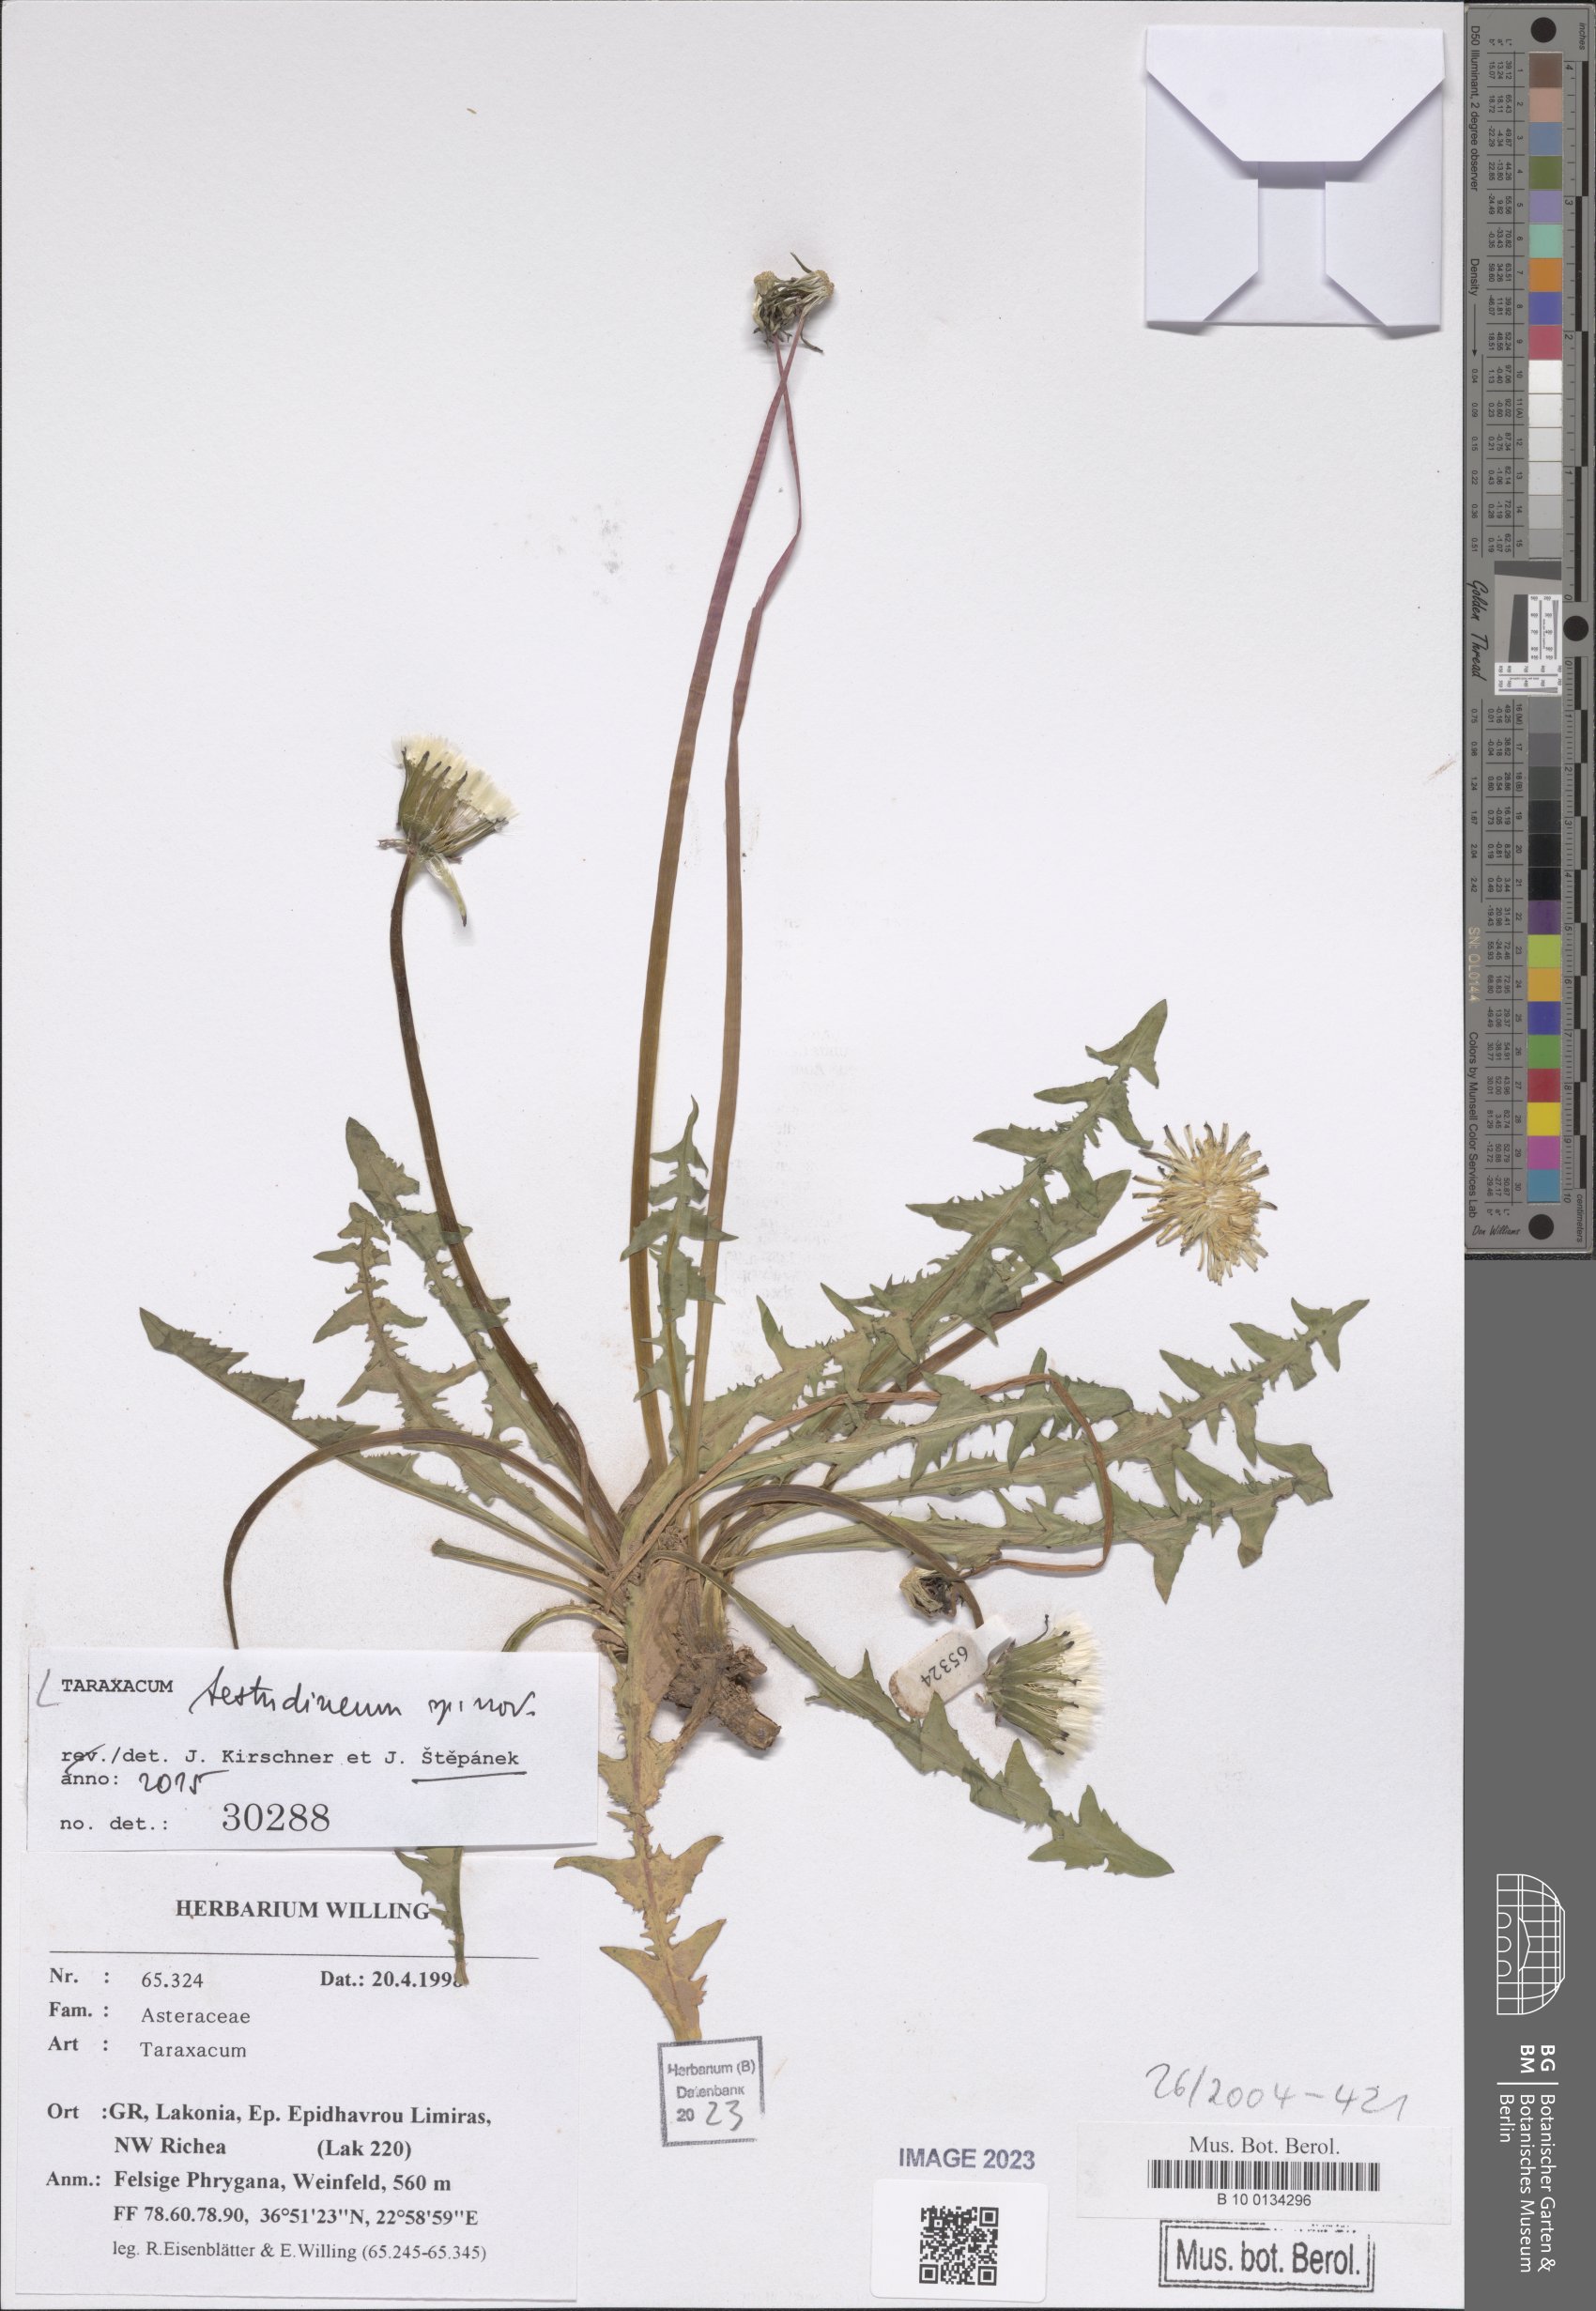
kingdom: Plantae
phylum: Tracheophyta
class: Magnoliopsida
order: Asterales
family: Asteraceae
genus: Taraxacum
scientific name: Taraxacum
